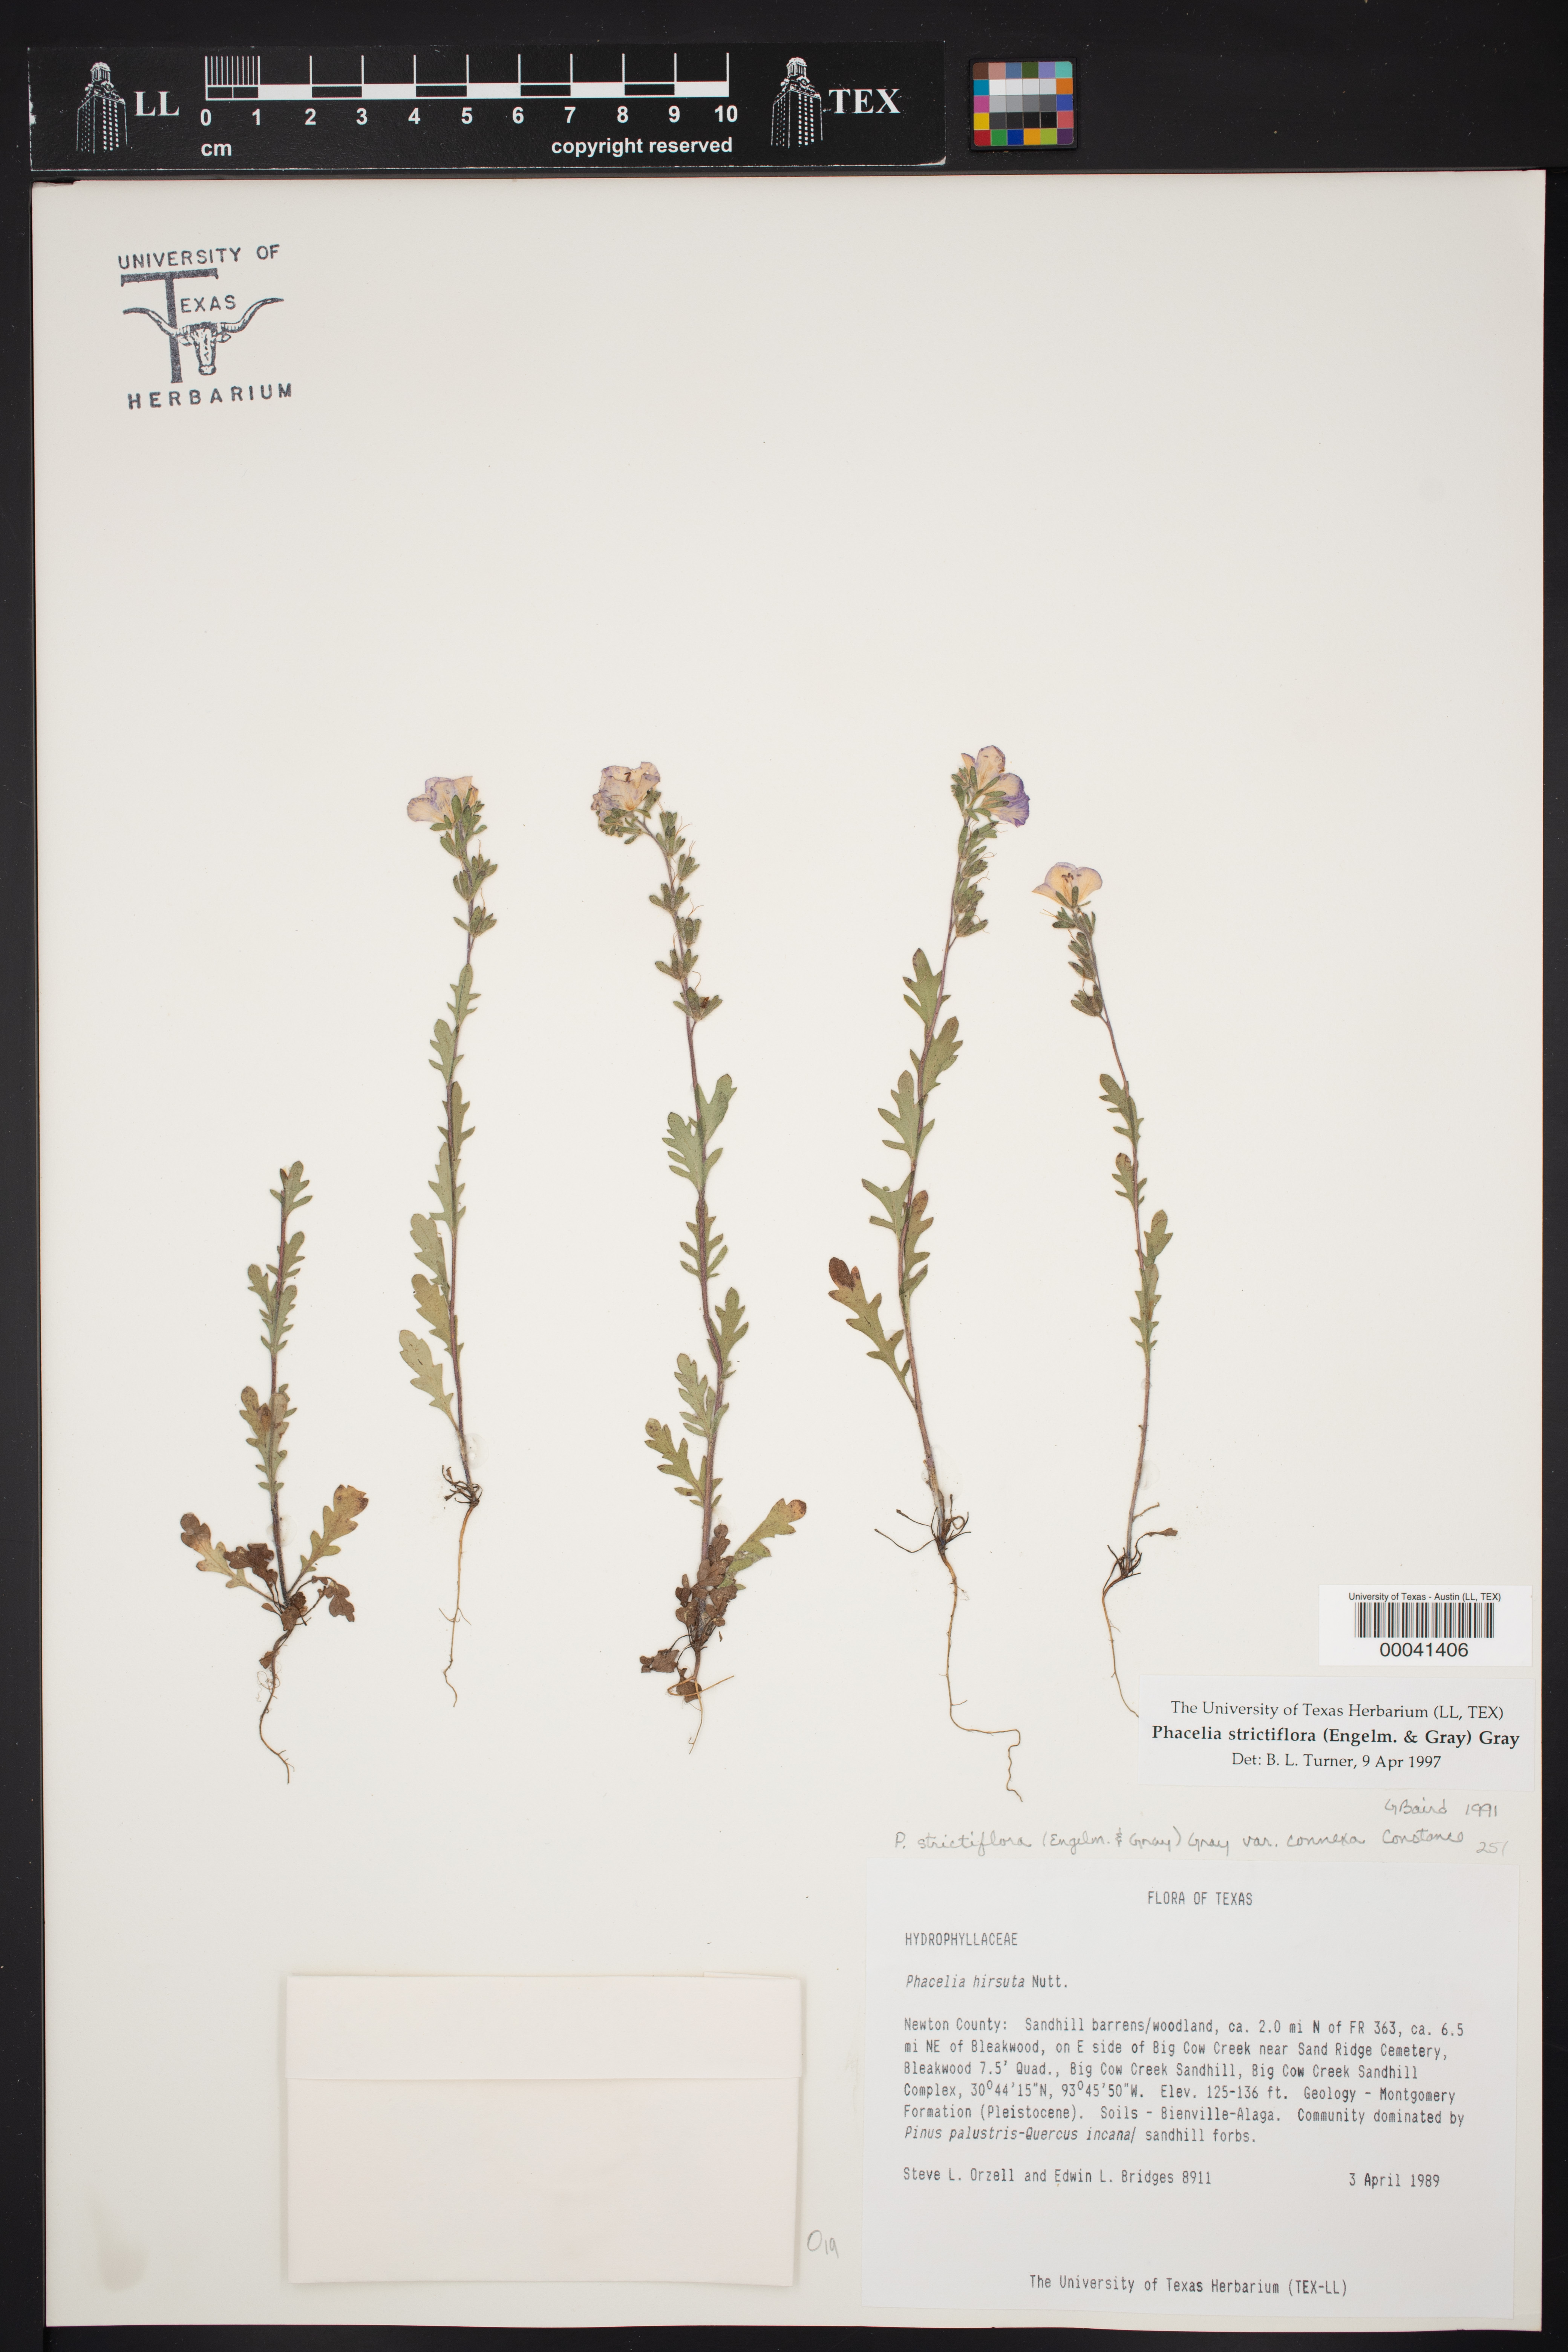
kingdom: Plantae
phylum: Tracheophyta
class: Magnoliopsida
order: Boraginales
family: Hydrophyllaceae
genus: Phacelia
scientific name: Phacelia strictiflora
